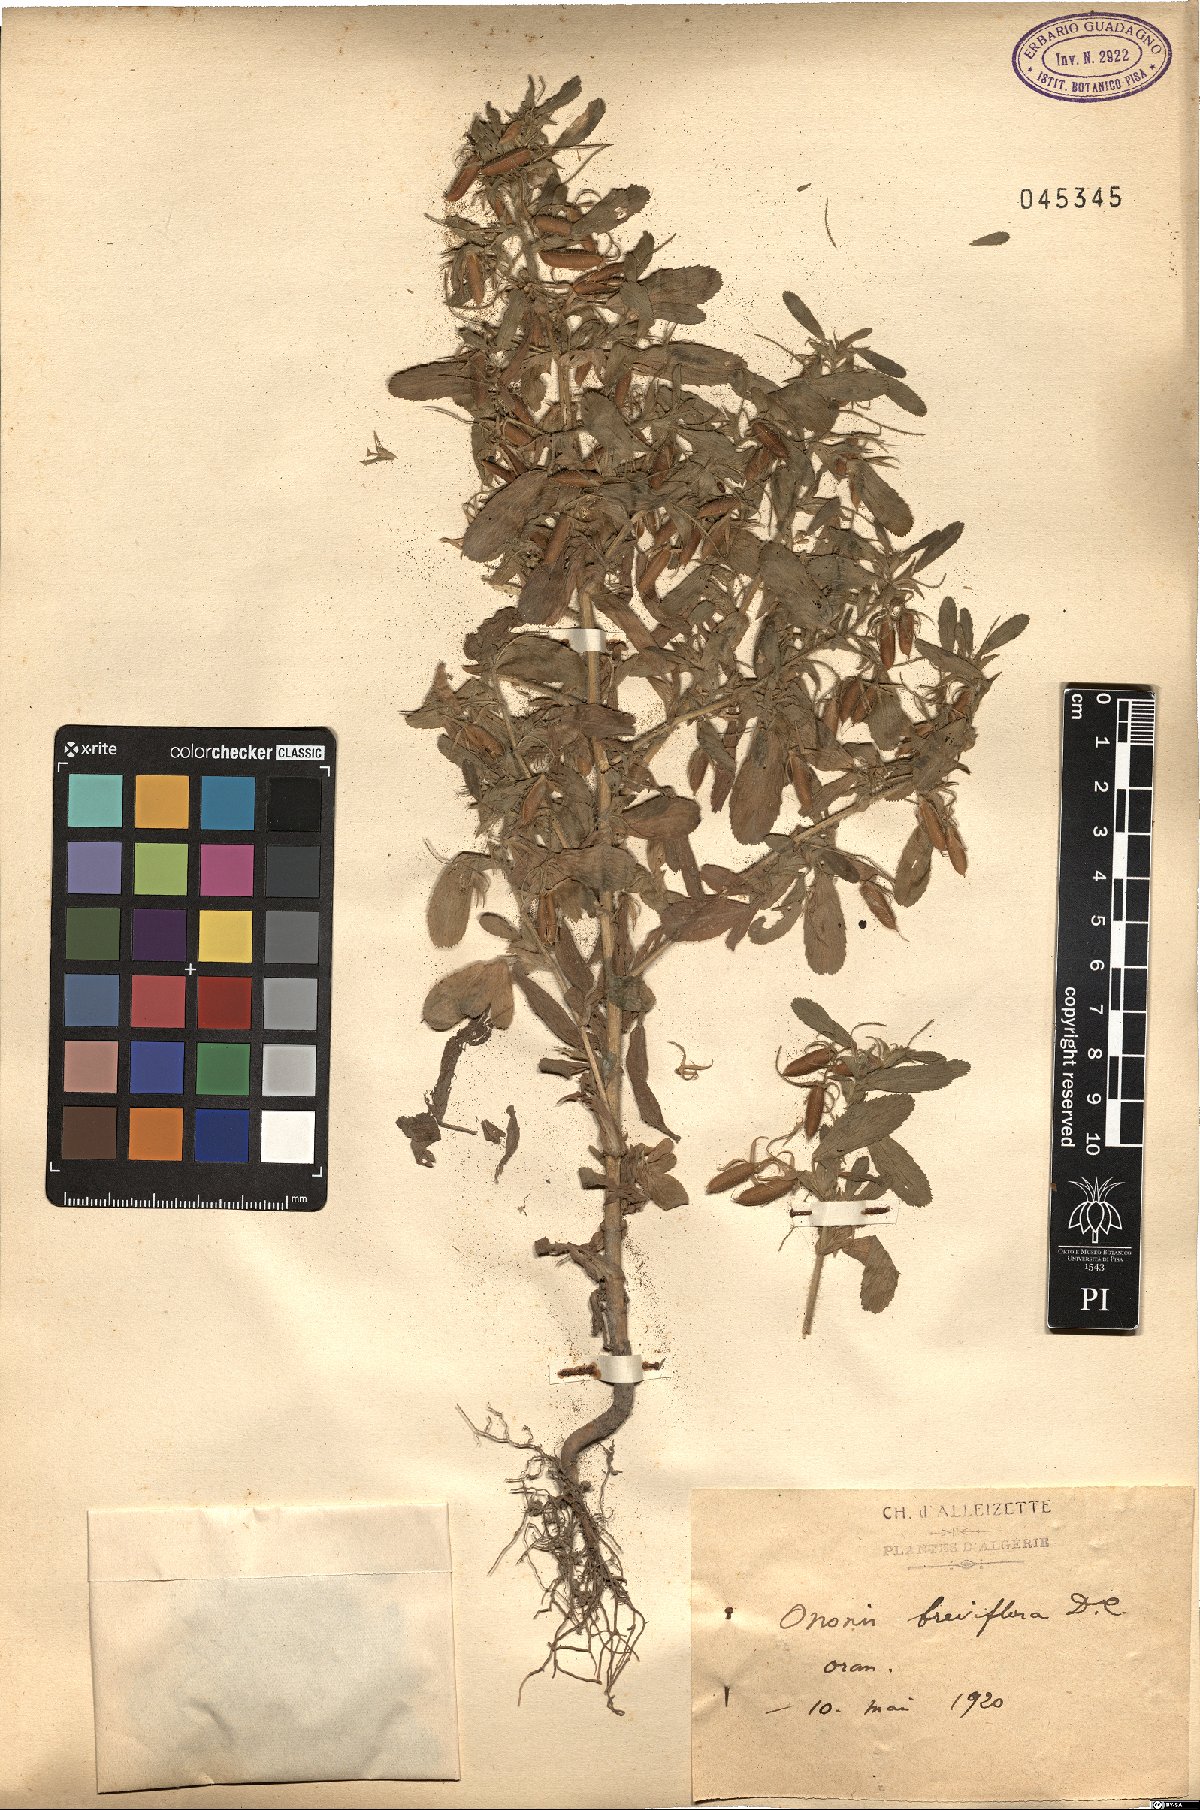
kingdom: Plantae
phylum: Tracheophyta
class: Magnoliopsida
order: Fabales
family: Fabaceae
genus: Ononis
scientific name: Ononis viscosa
